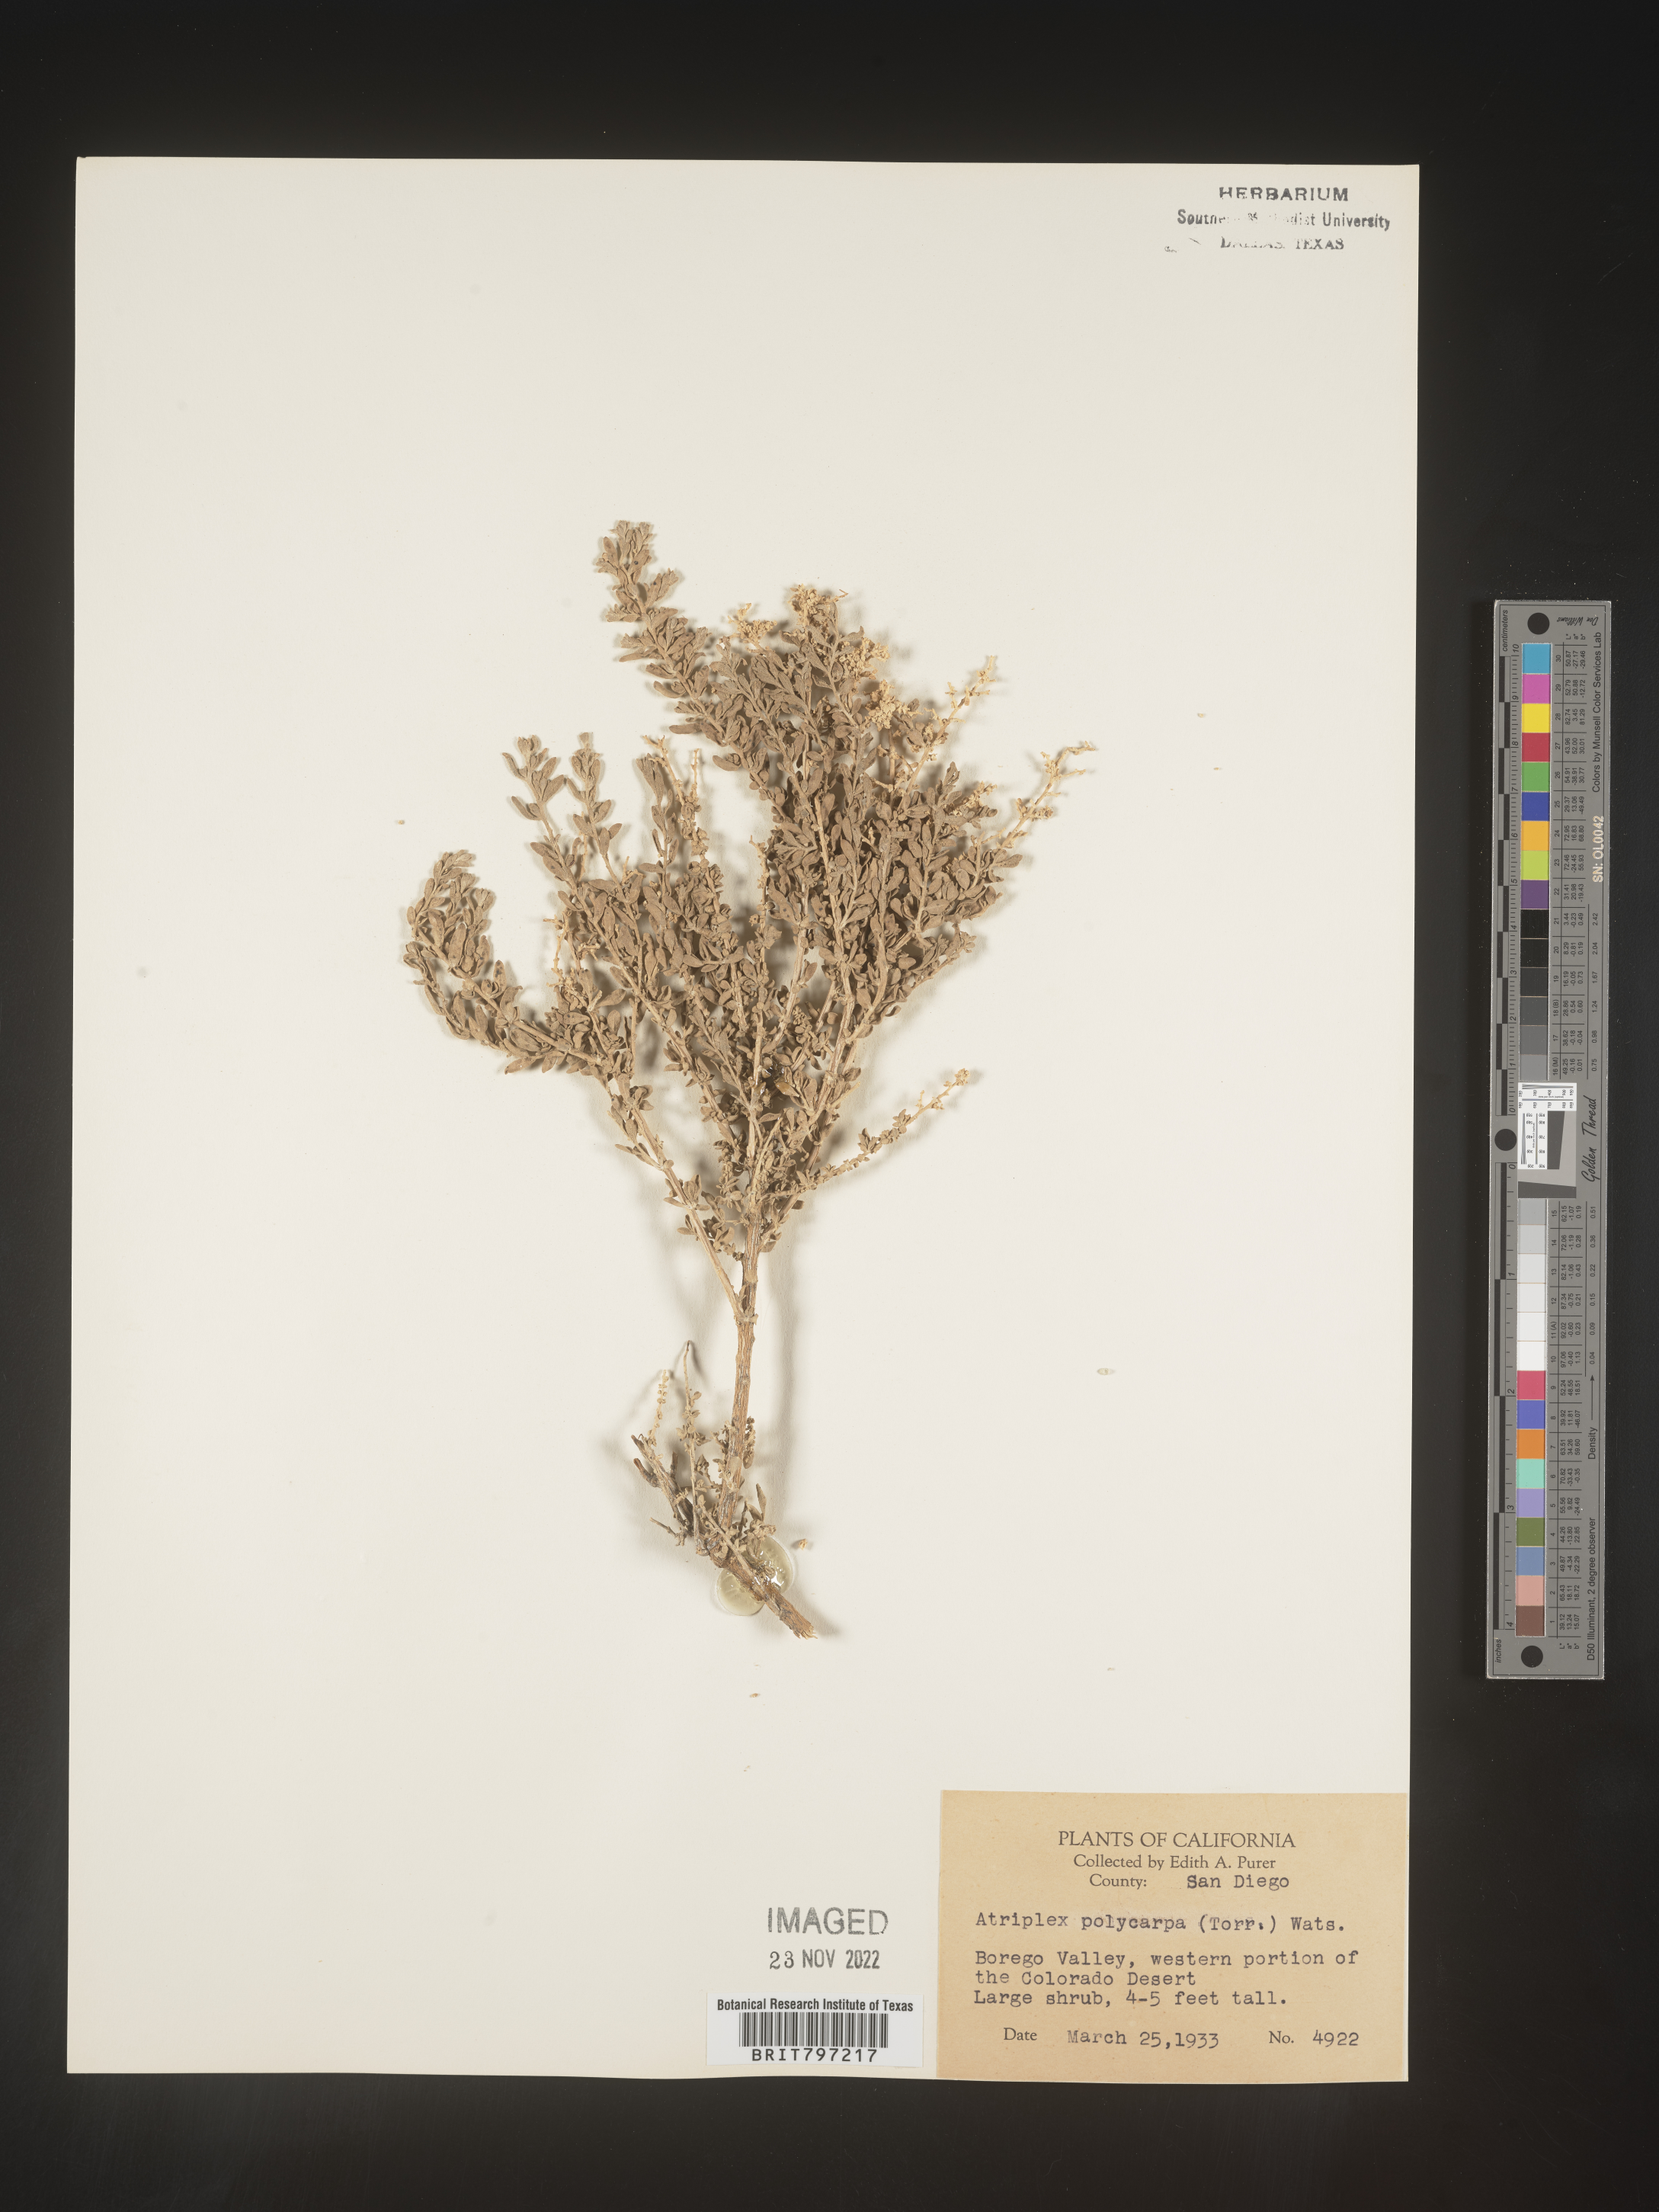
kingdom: Plantae
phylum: Tracheophyta
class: Magnoliopsida
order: Caryophyllales
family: Amaranthaceae
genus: Atriplex
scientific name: Atriplex polycarpa
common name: Desert saltbush
